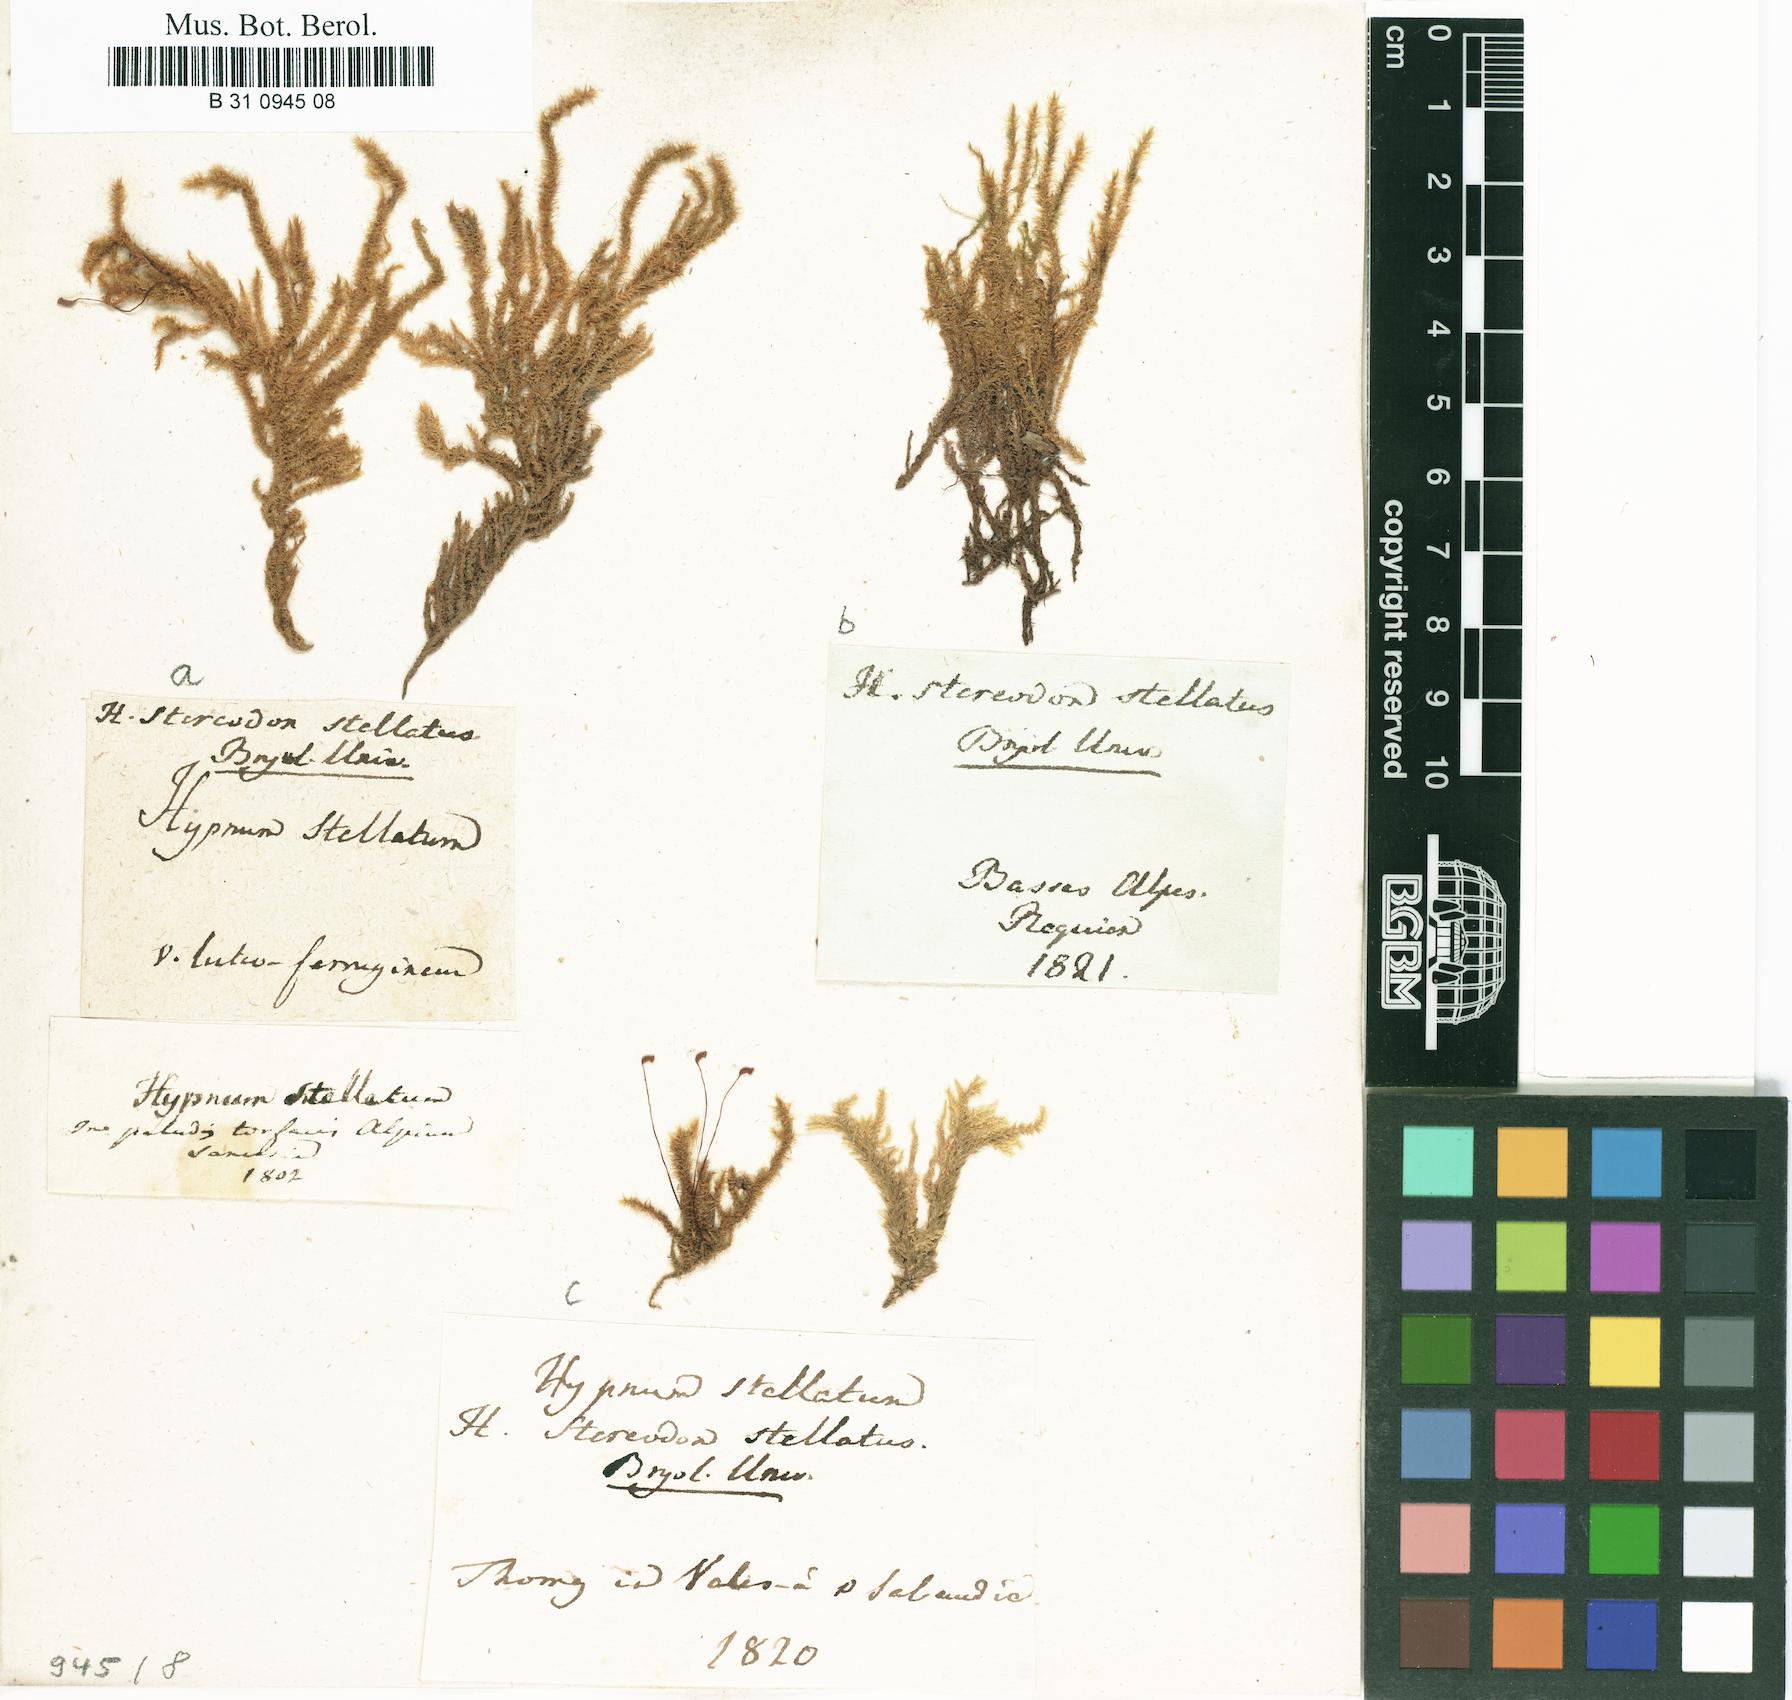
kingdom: Plantae
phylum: Bryophyta
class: Bryopsida
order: Hypnales
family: Amblystegiaceae
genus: Campylium
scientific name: Campylium stellatum
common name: Yellow starry fen moss
